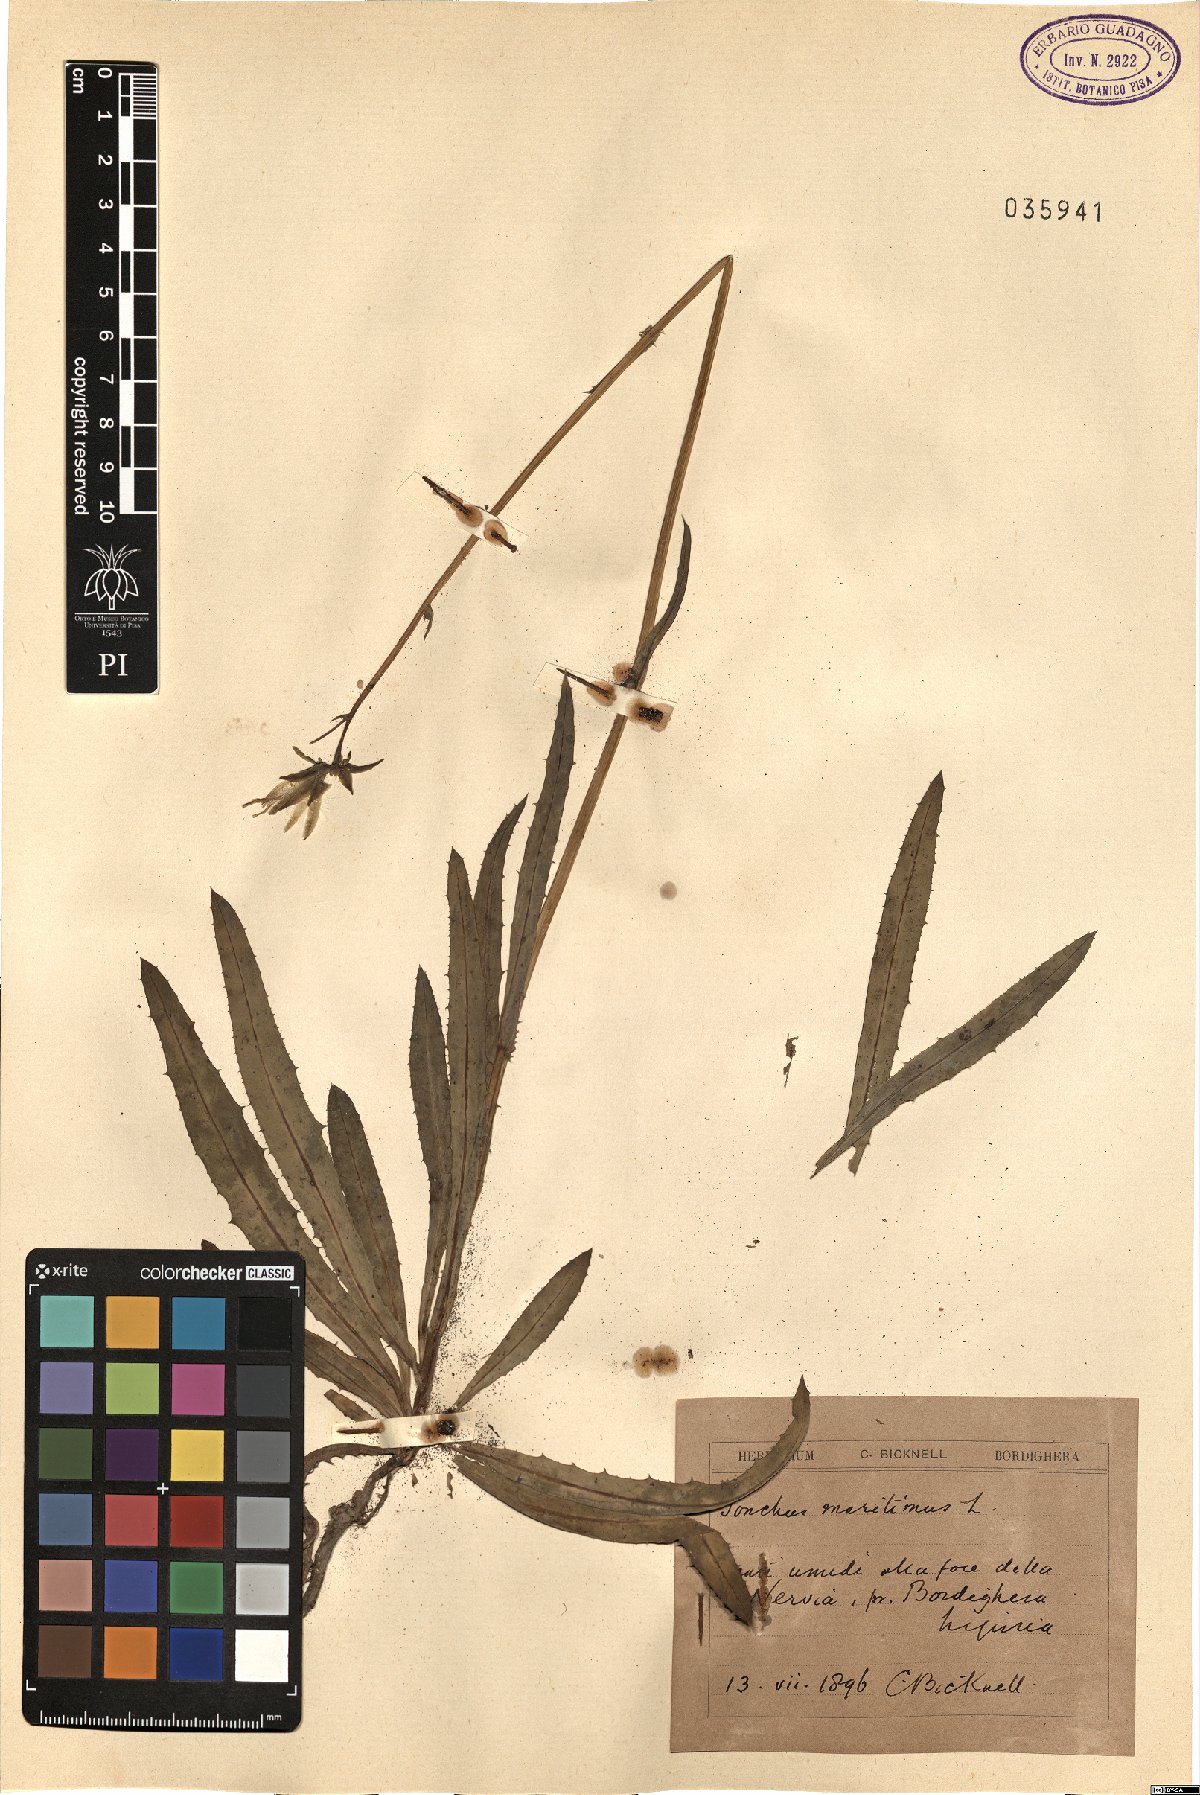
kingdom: Plantae
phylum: Tracheophyta
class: Magnoliopsida
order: Asterales
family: Asteraceae
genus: Sonchus
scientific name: Sonchus maritimus
